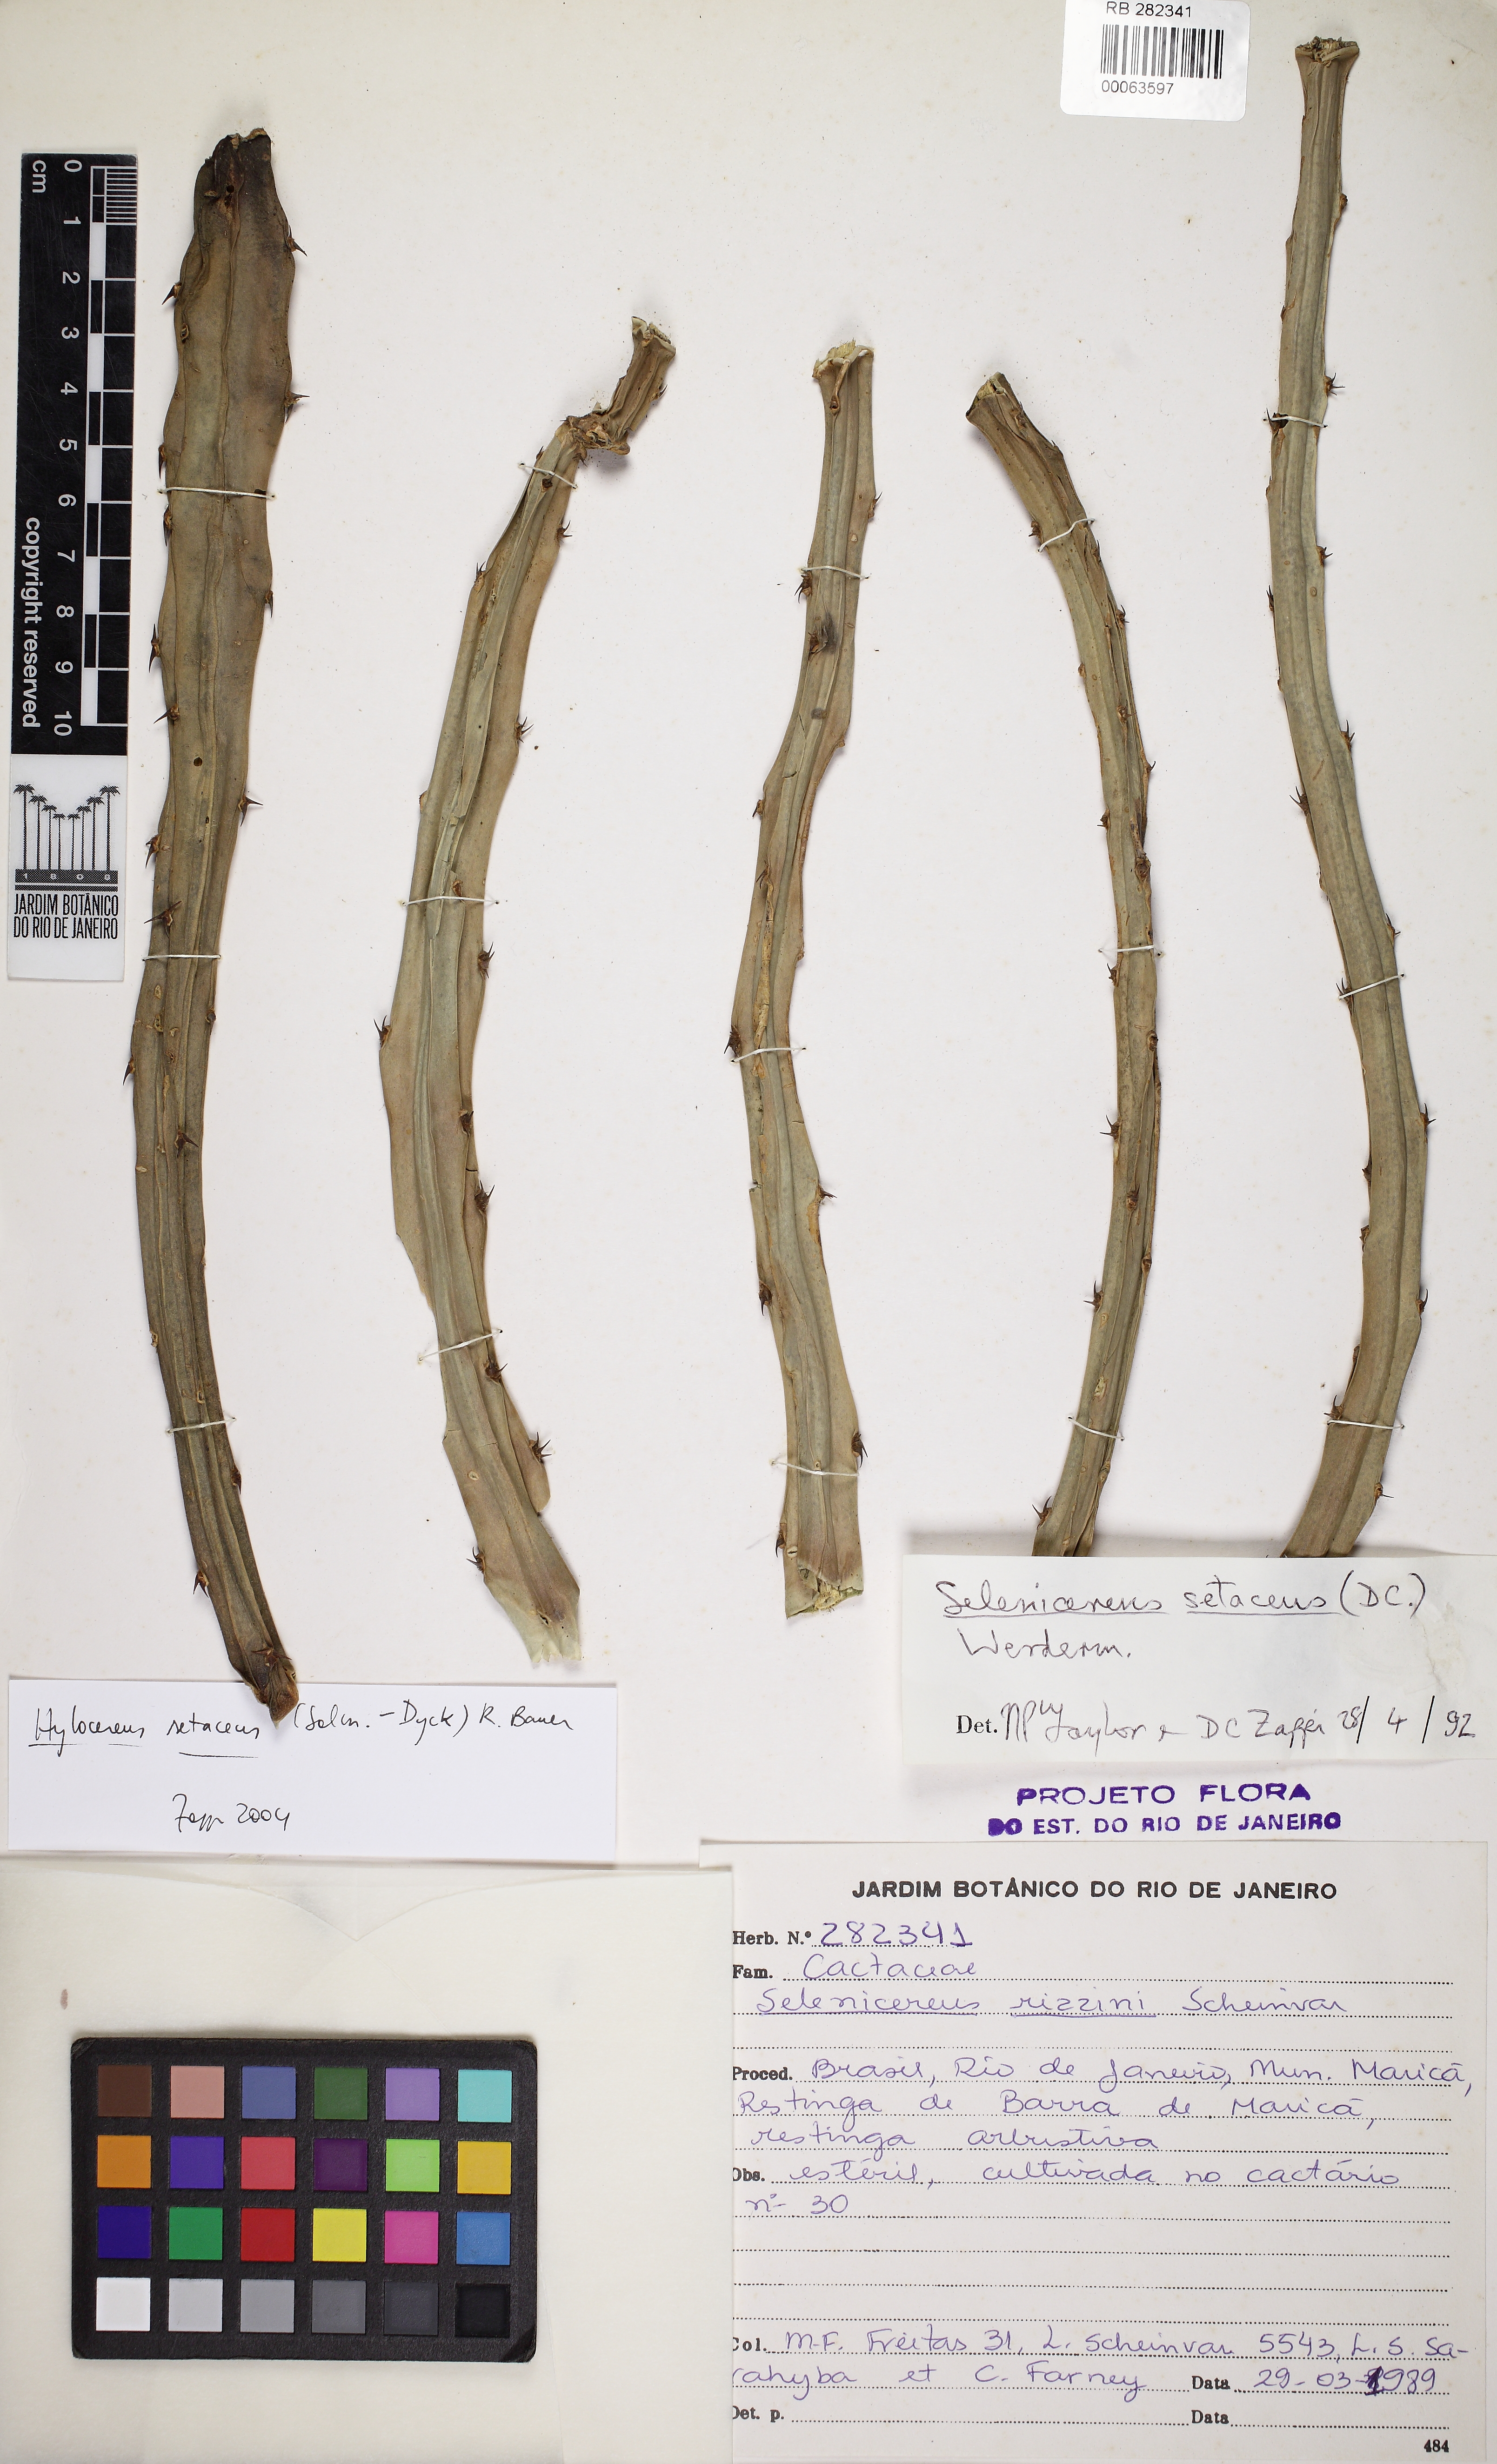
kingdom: Plantae
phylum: Tracheophyta
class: Magnoliopsida
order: Caryophyllales
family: Cactaceae
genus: Selenicereus
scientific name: Selenicereus setaceus
